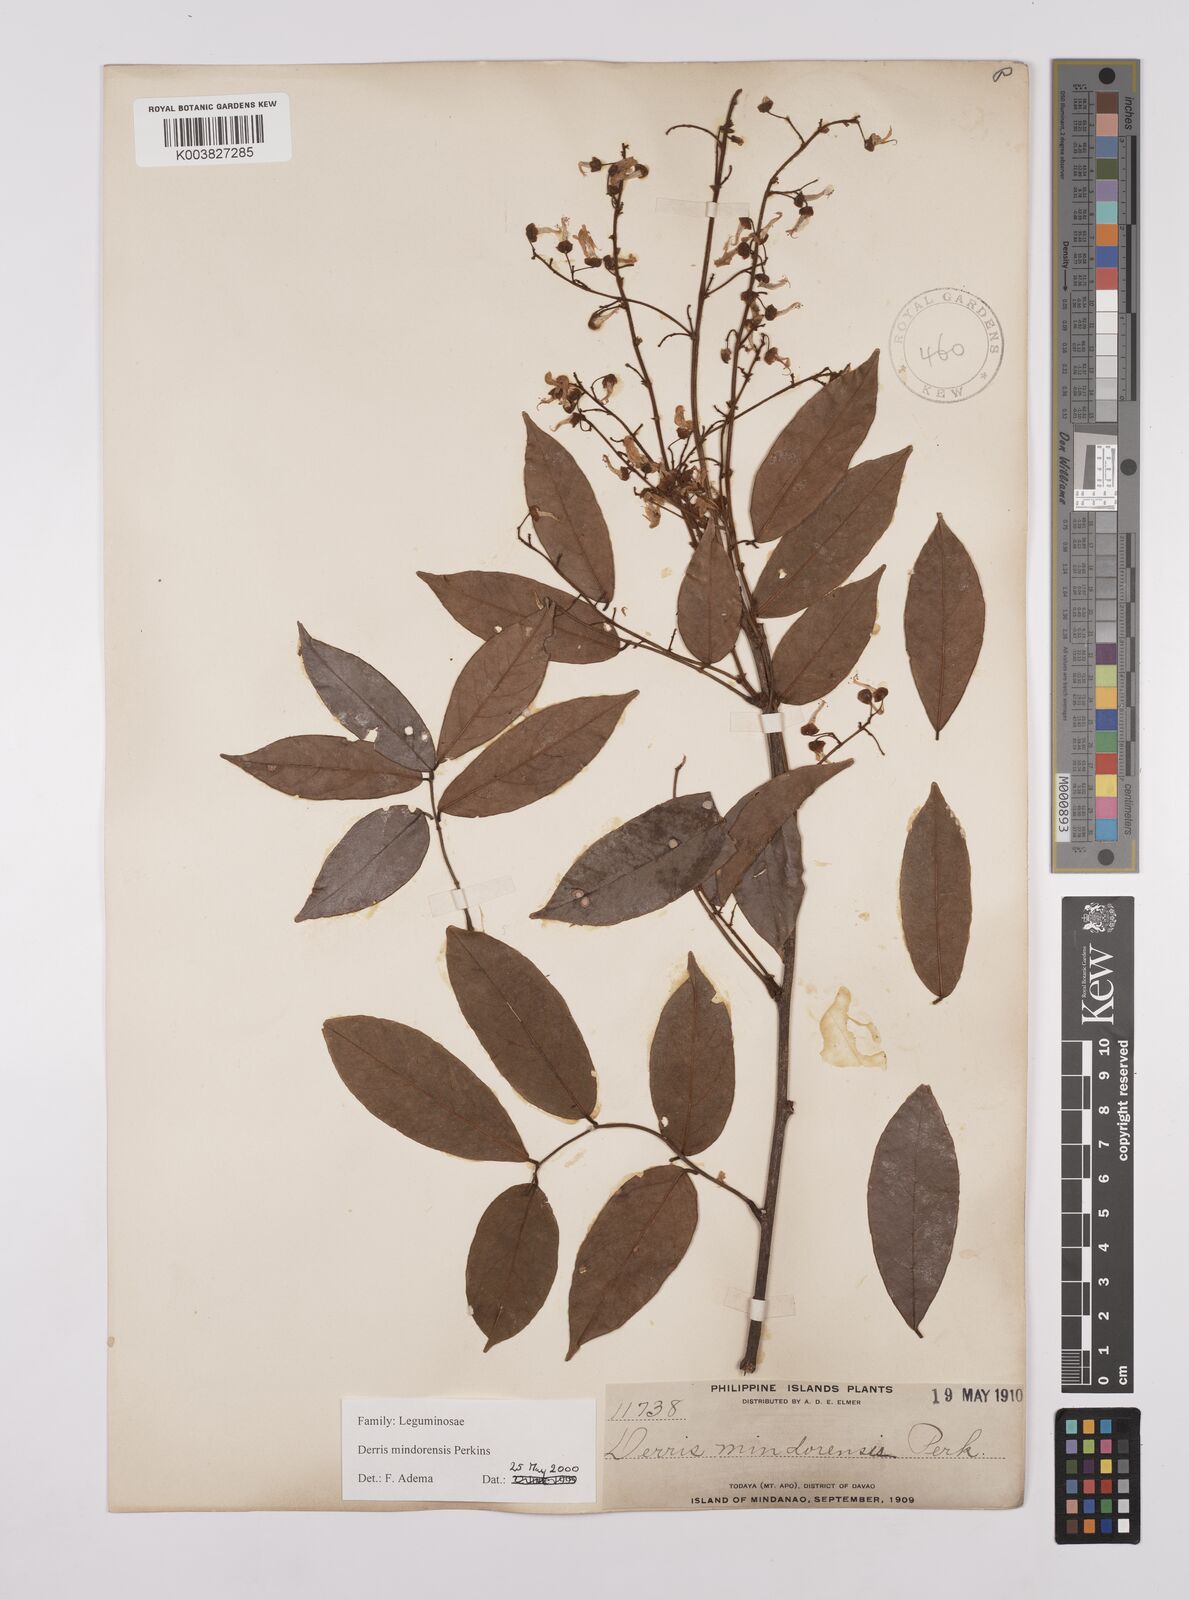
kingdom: Plantae
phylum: Tracheophyta
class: Magnoliopsida
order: Fabales
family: Fabaceae
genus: Derris
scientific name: Derris pubipetala
